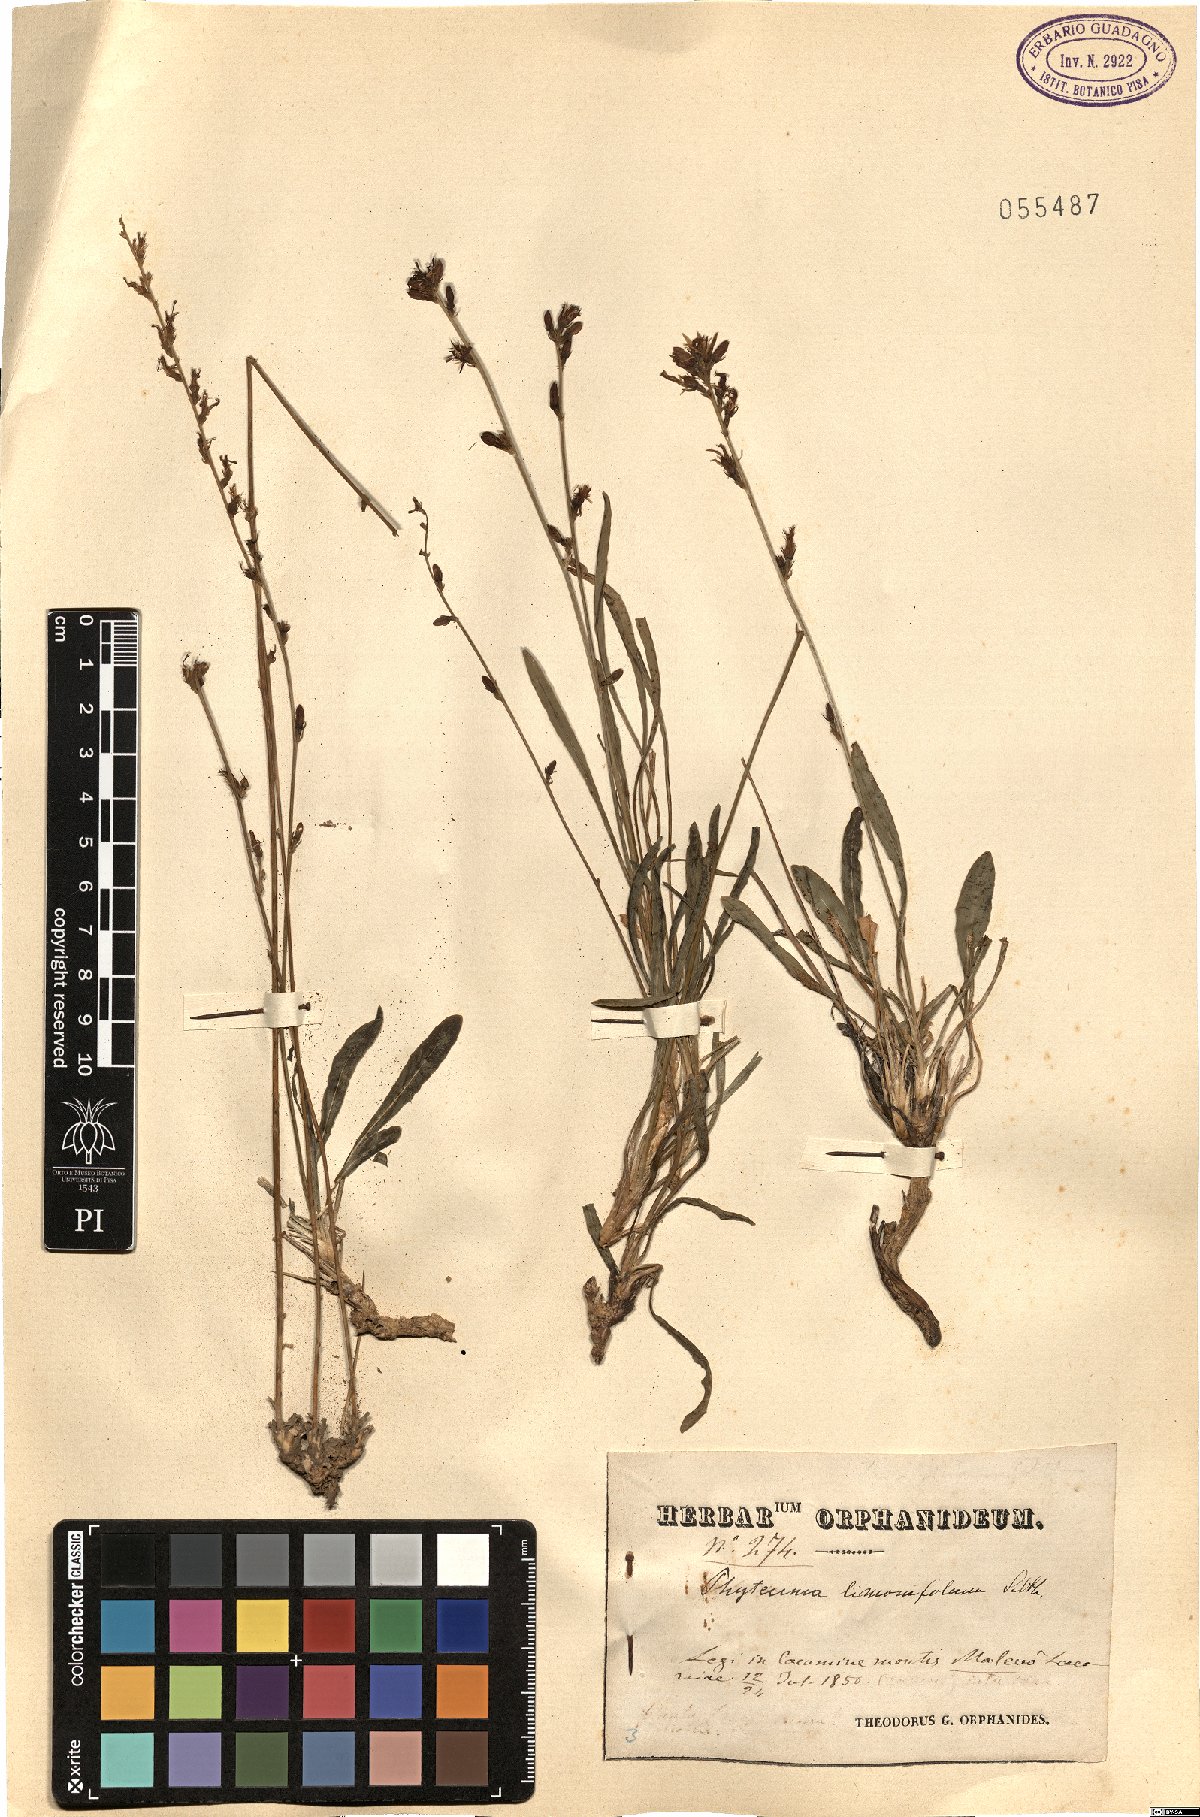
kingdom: Plantae
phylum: Tracheophyta
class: Magnoliopsida
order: Asterales
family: Campanulaceae
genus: Asyneuma
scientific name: Asyneuma limonifolium
